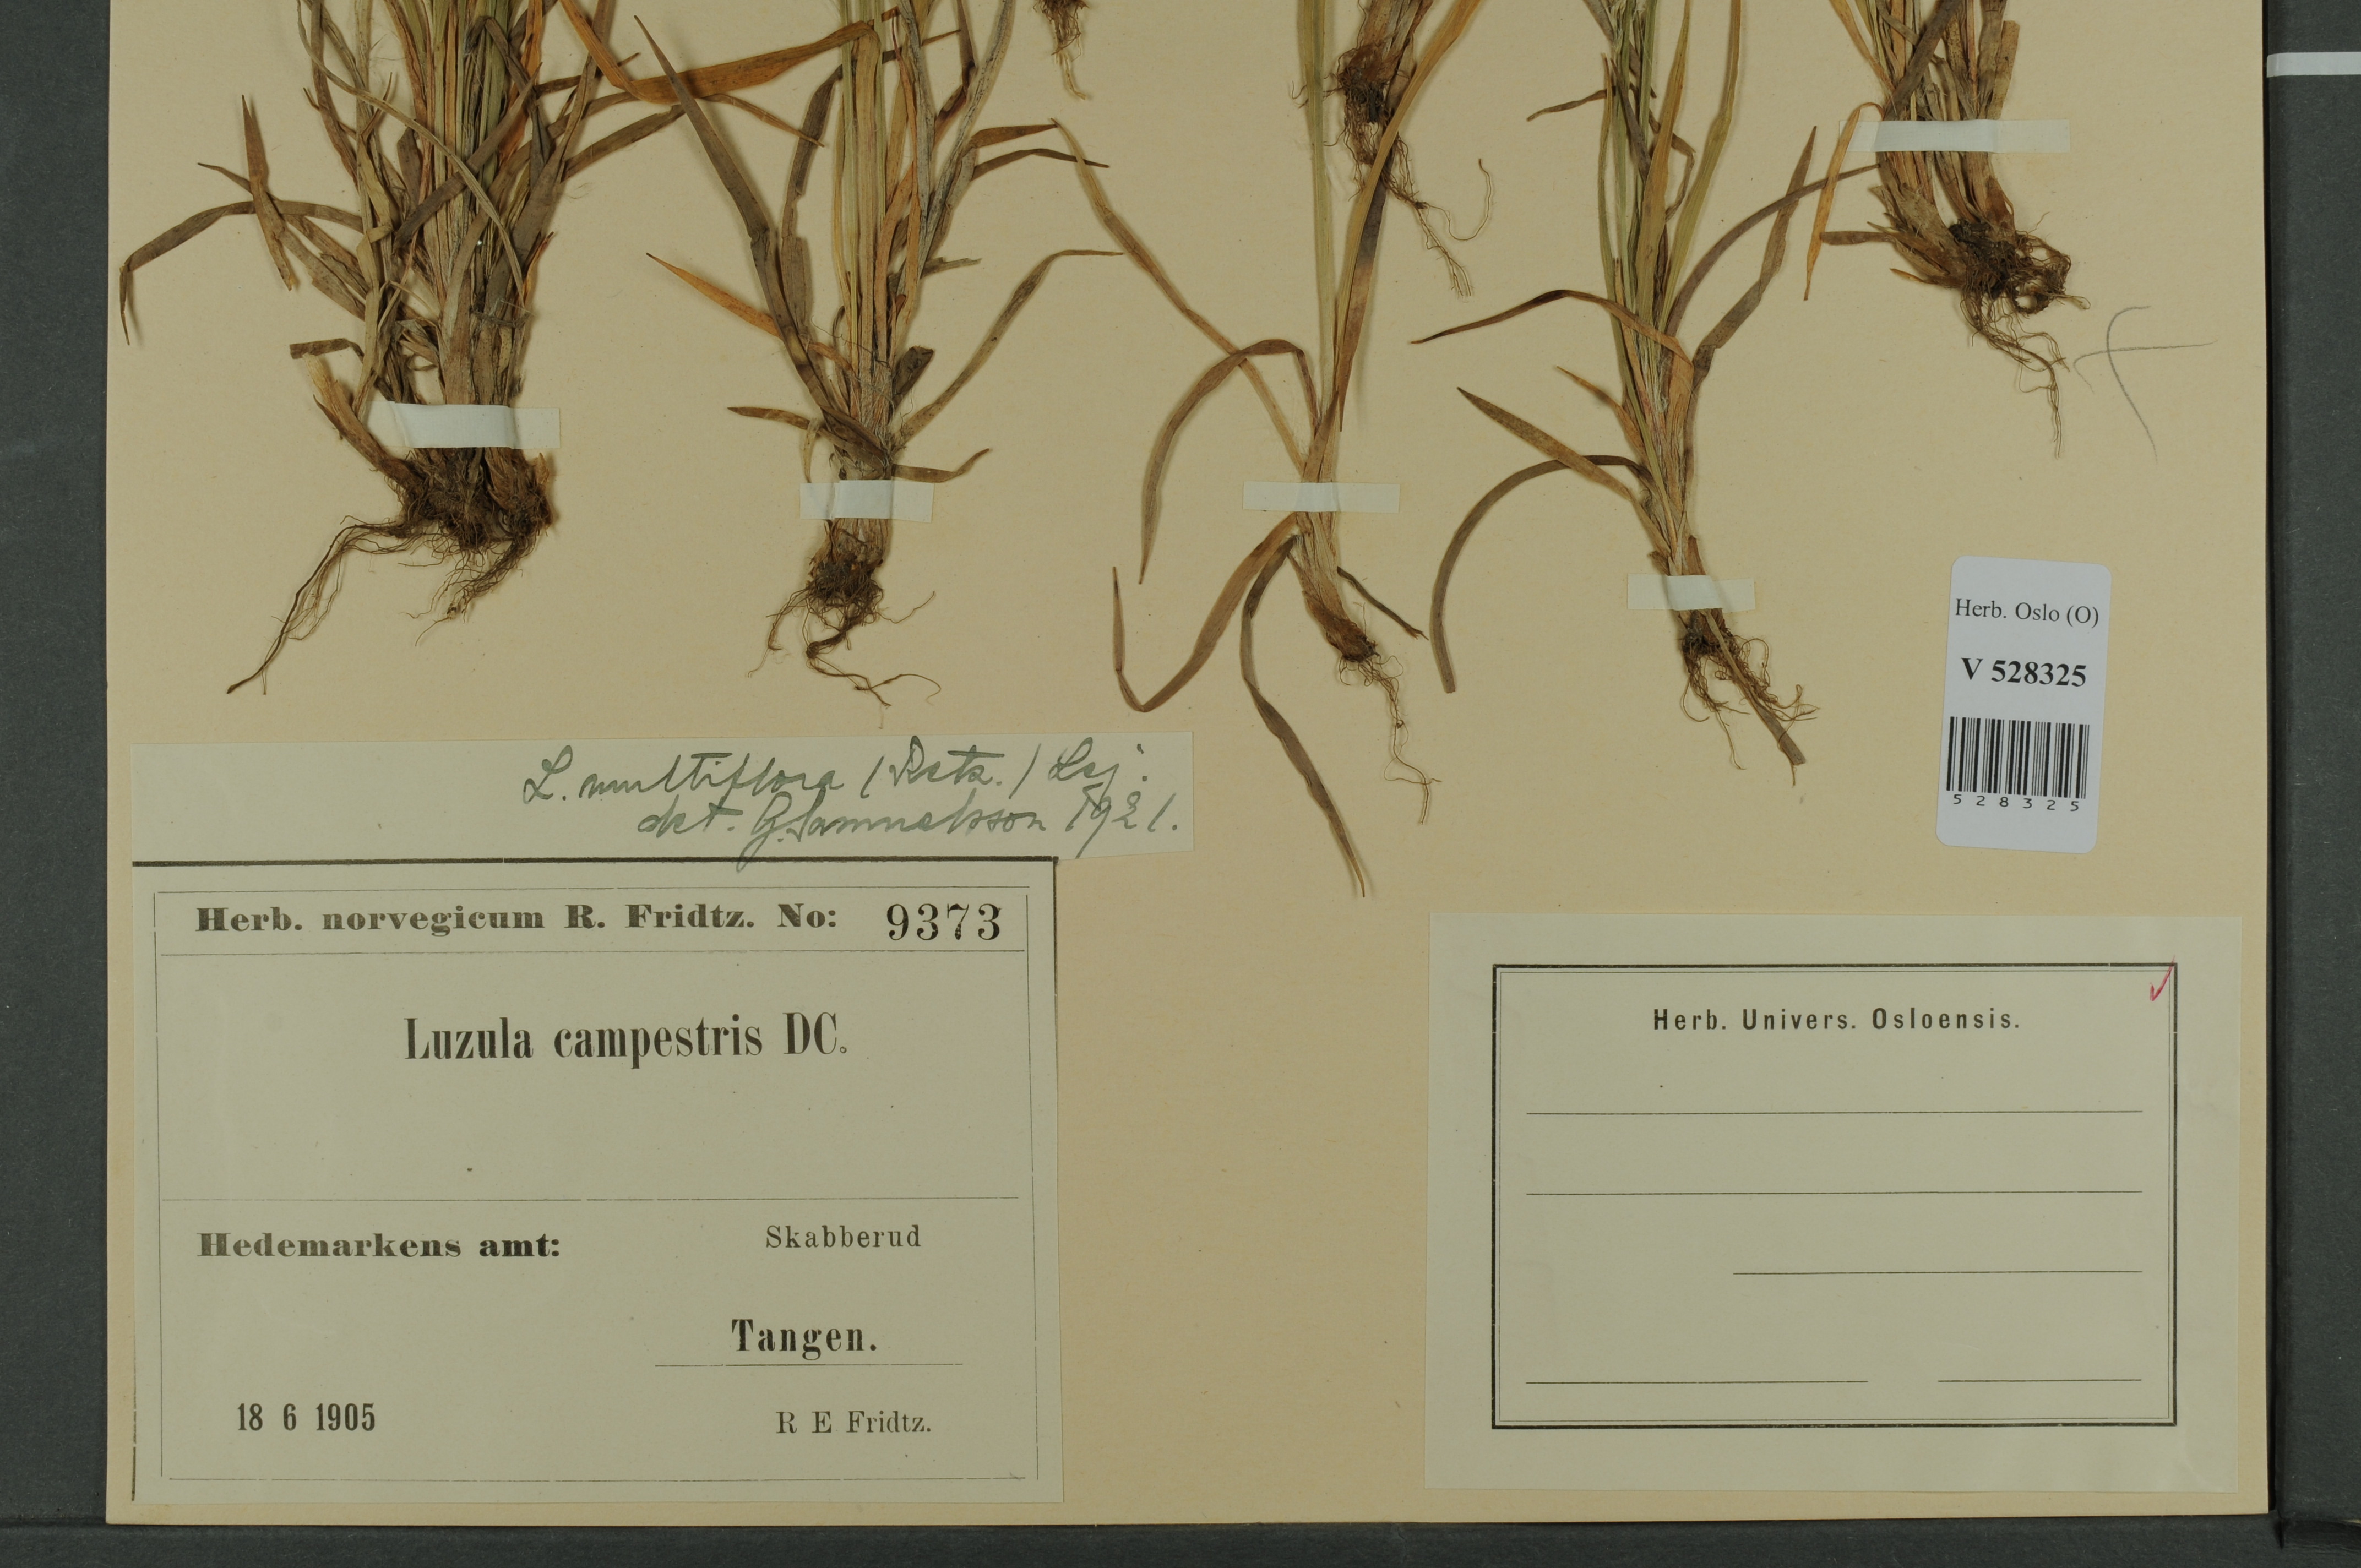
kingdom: Plantae
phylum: Tracheophyta
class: Liliopsida
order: Poales
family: Juncaceae
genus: Luzula
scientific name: Luzula multiflora
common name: Heath wood-rush
